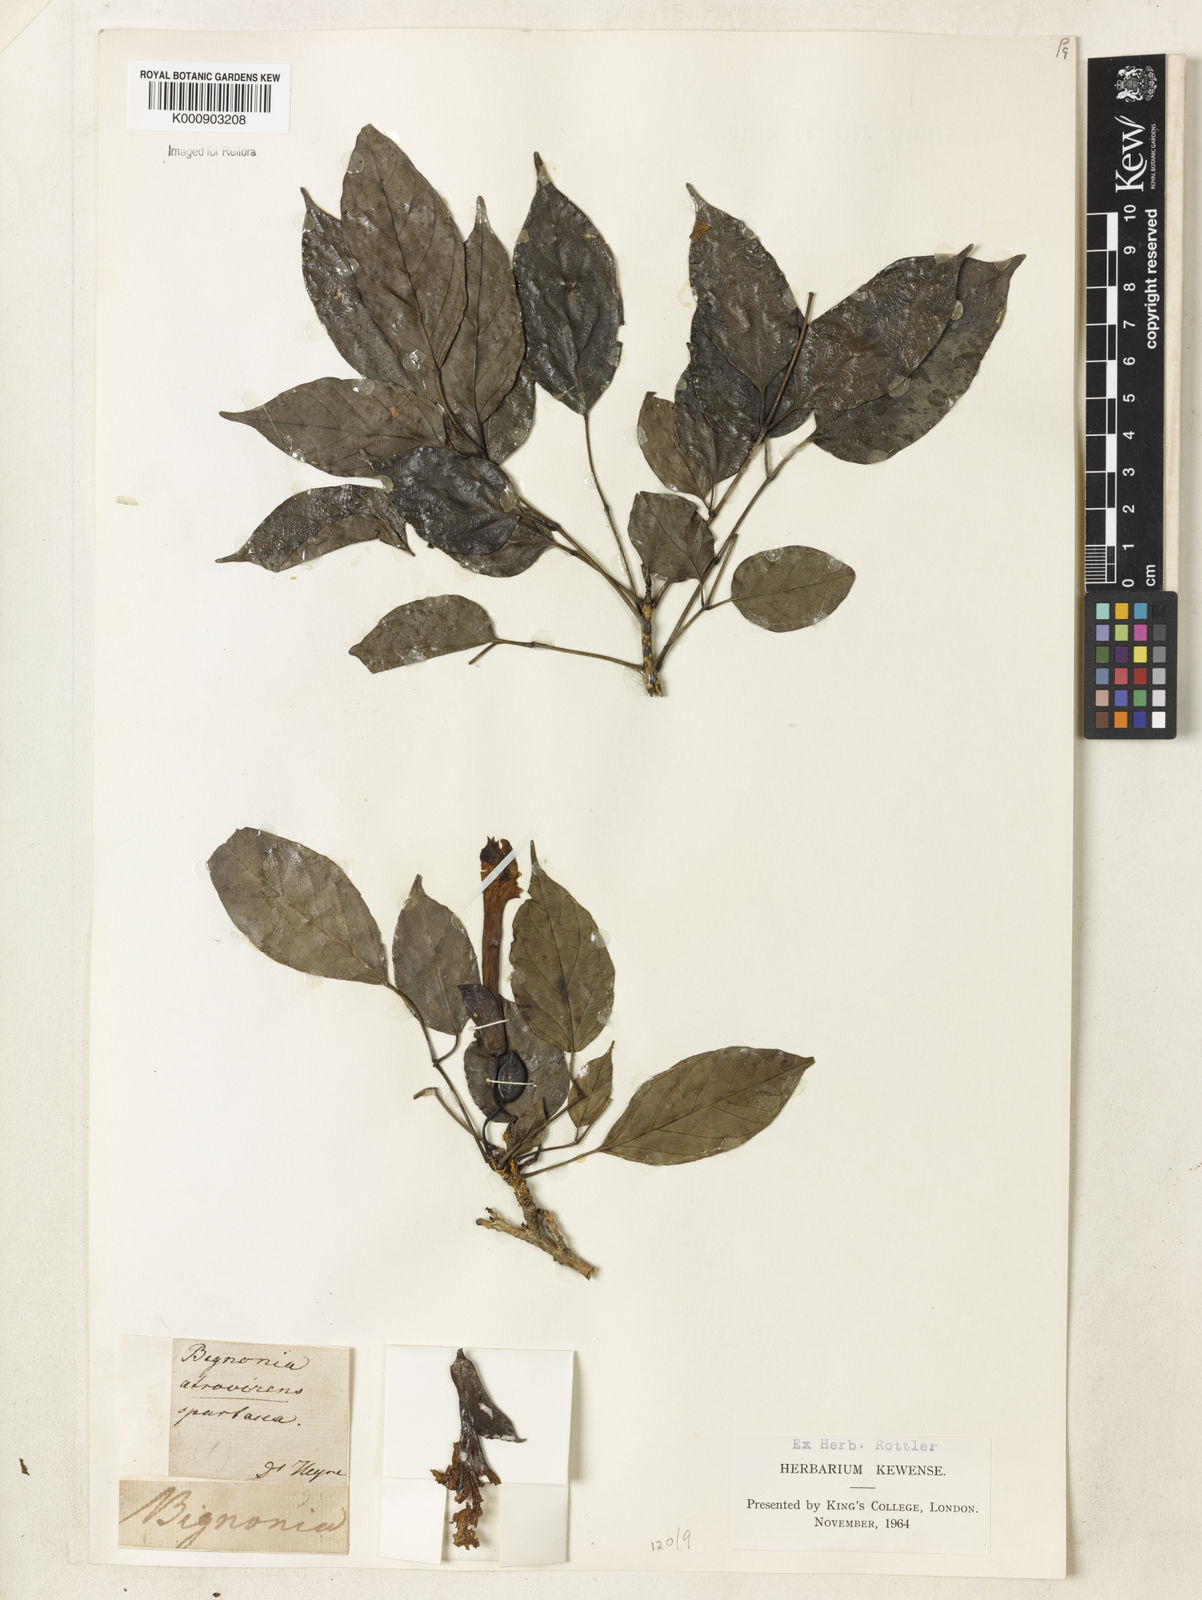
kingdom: Plantae
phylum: Tracheophyta
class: Magnoliopsida
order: Lamiales
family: Bignoniaceae
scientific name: Bignoniaceae
